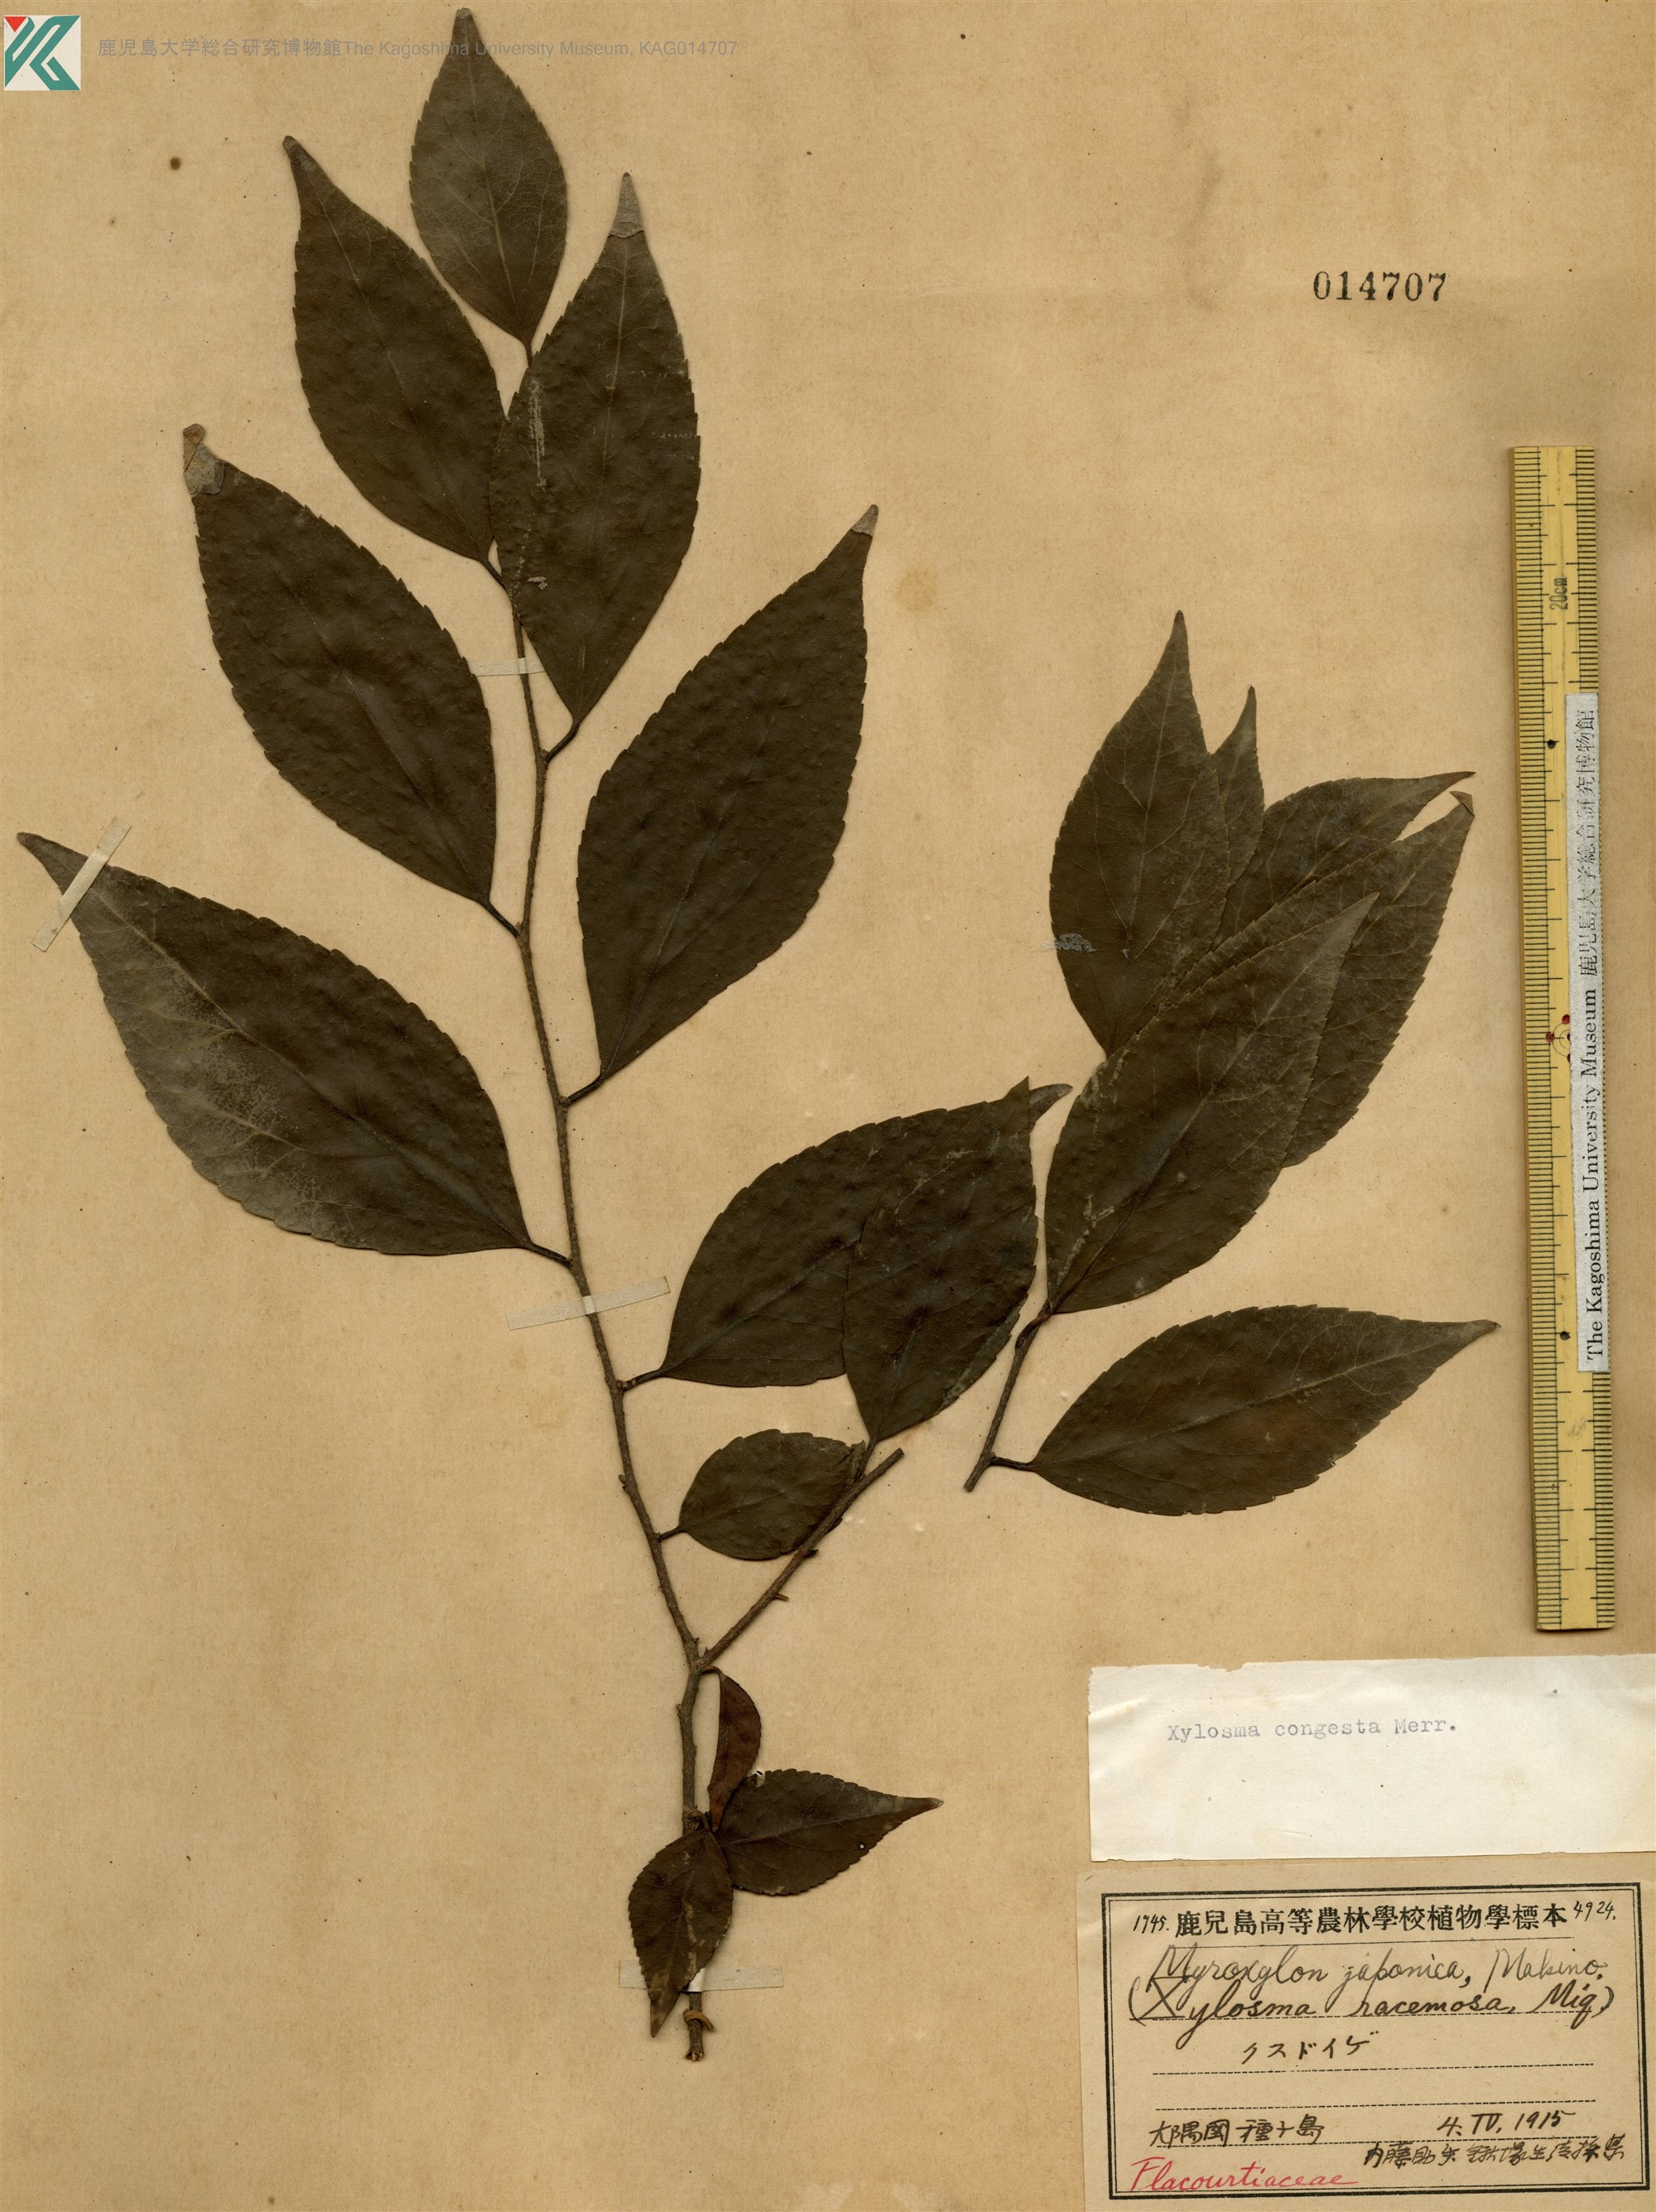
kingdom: Plantae
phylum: Tracheophyta
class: Magnoliopsida
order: Malpighiales
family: Salicaceae
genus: Xylosma
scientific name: Xylosma racemosum
